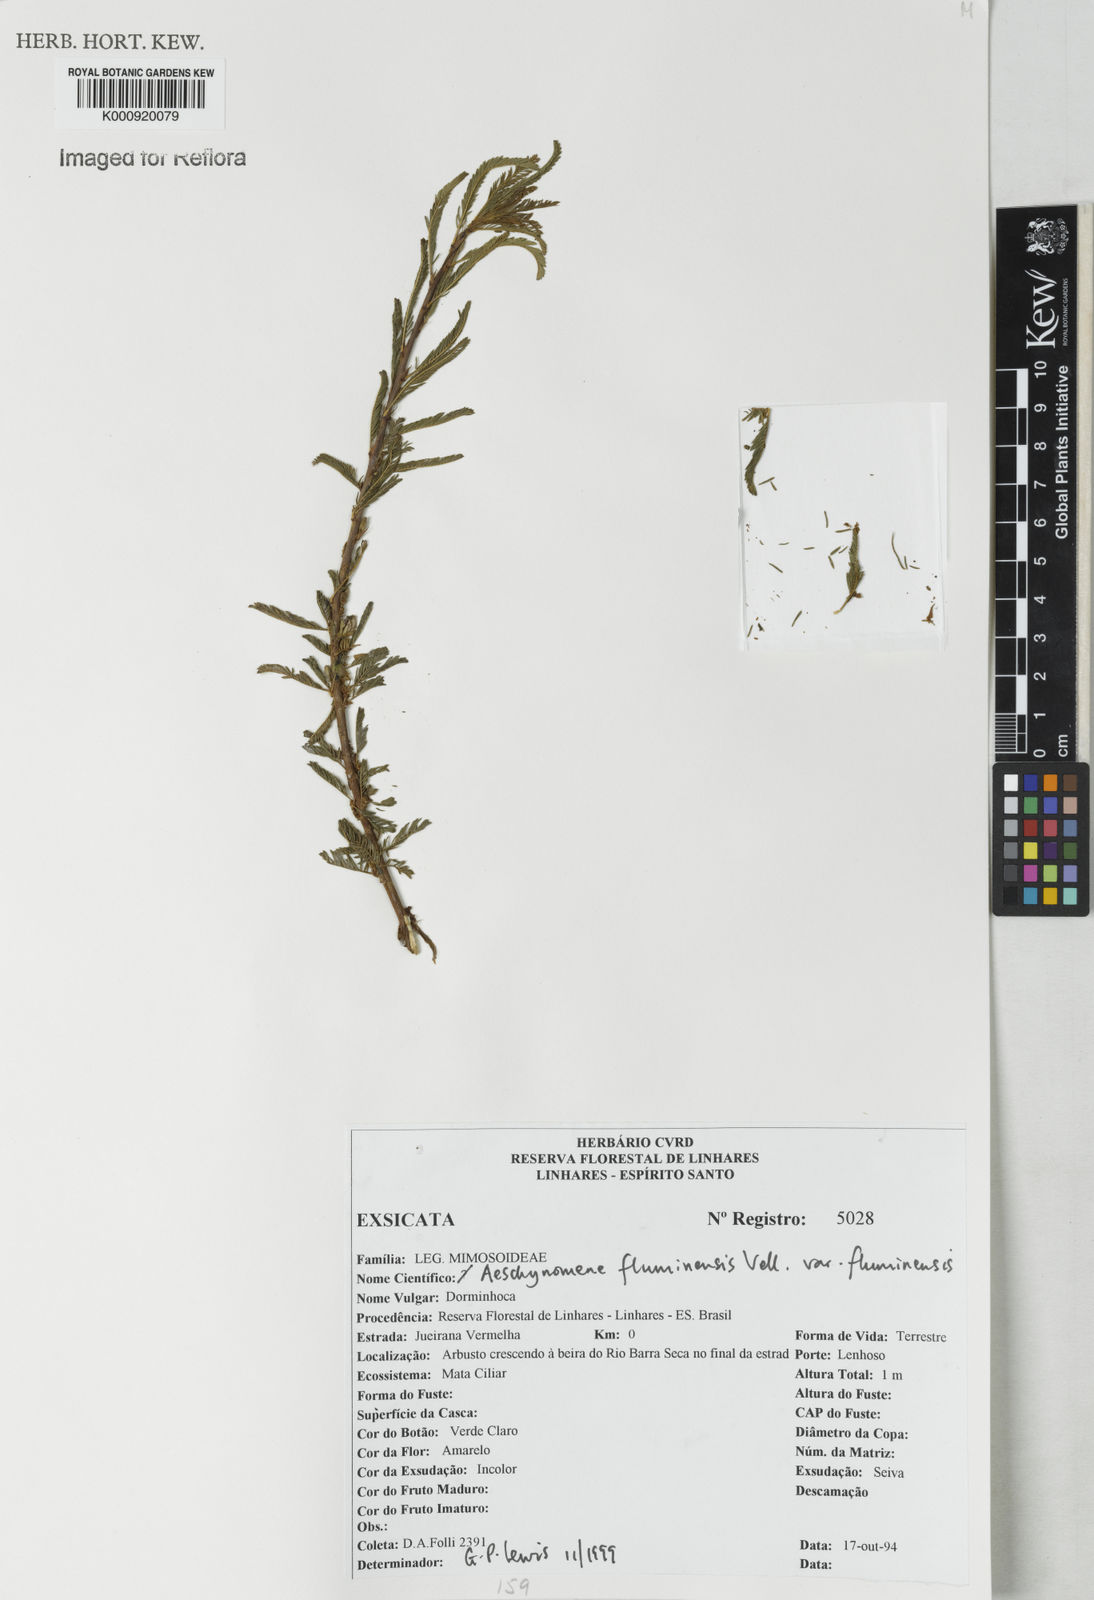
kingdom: Plantae
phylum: Tracheophyta
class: Magnoliopsida
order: Fabales
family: Fabaceae
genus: Aeschynomene
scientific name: Aeschynomene fluminensis
